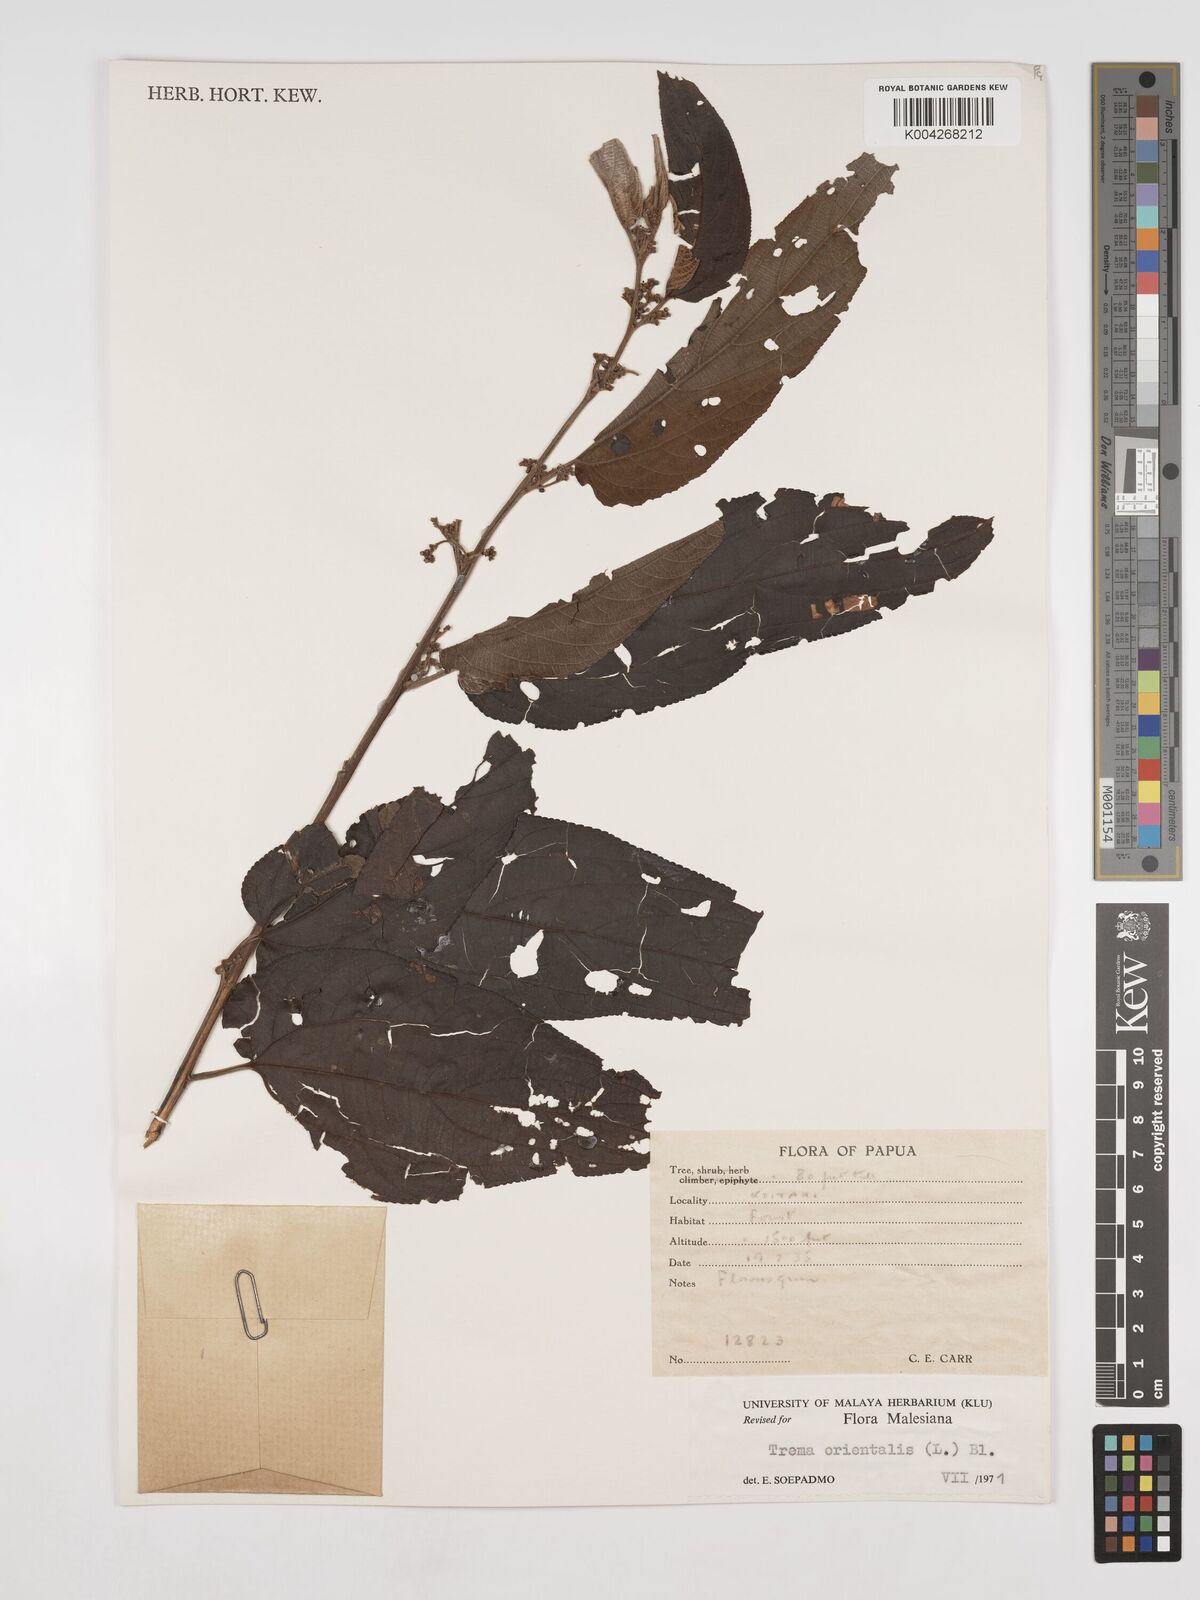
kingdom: Plantae
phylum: Tracheophyta
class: Magnoliopsida
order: Rosales
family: Cannabaceae
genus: Trema
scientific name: Trema orientale
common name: Indian charcoal tree
